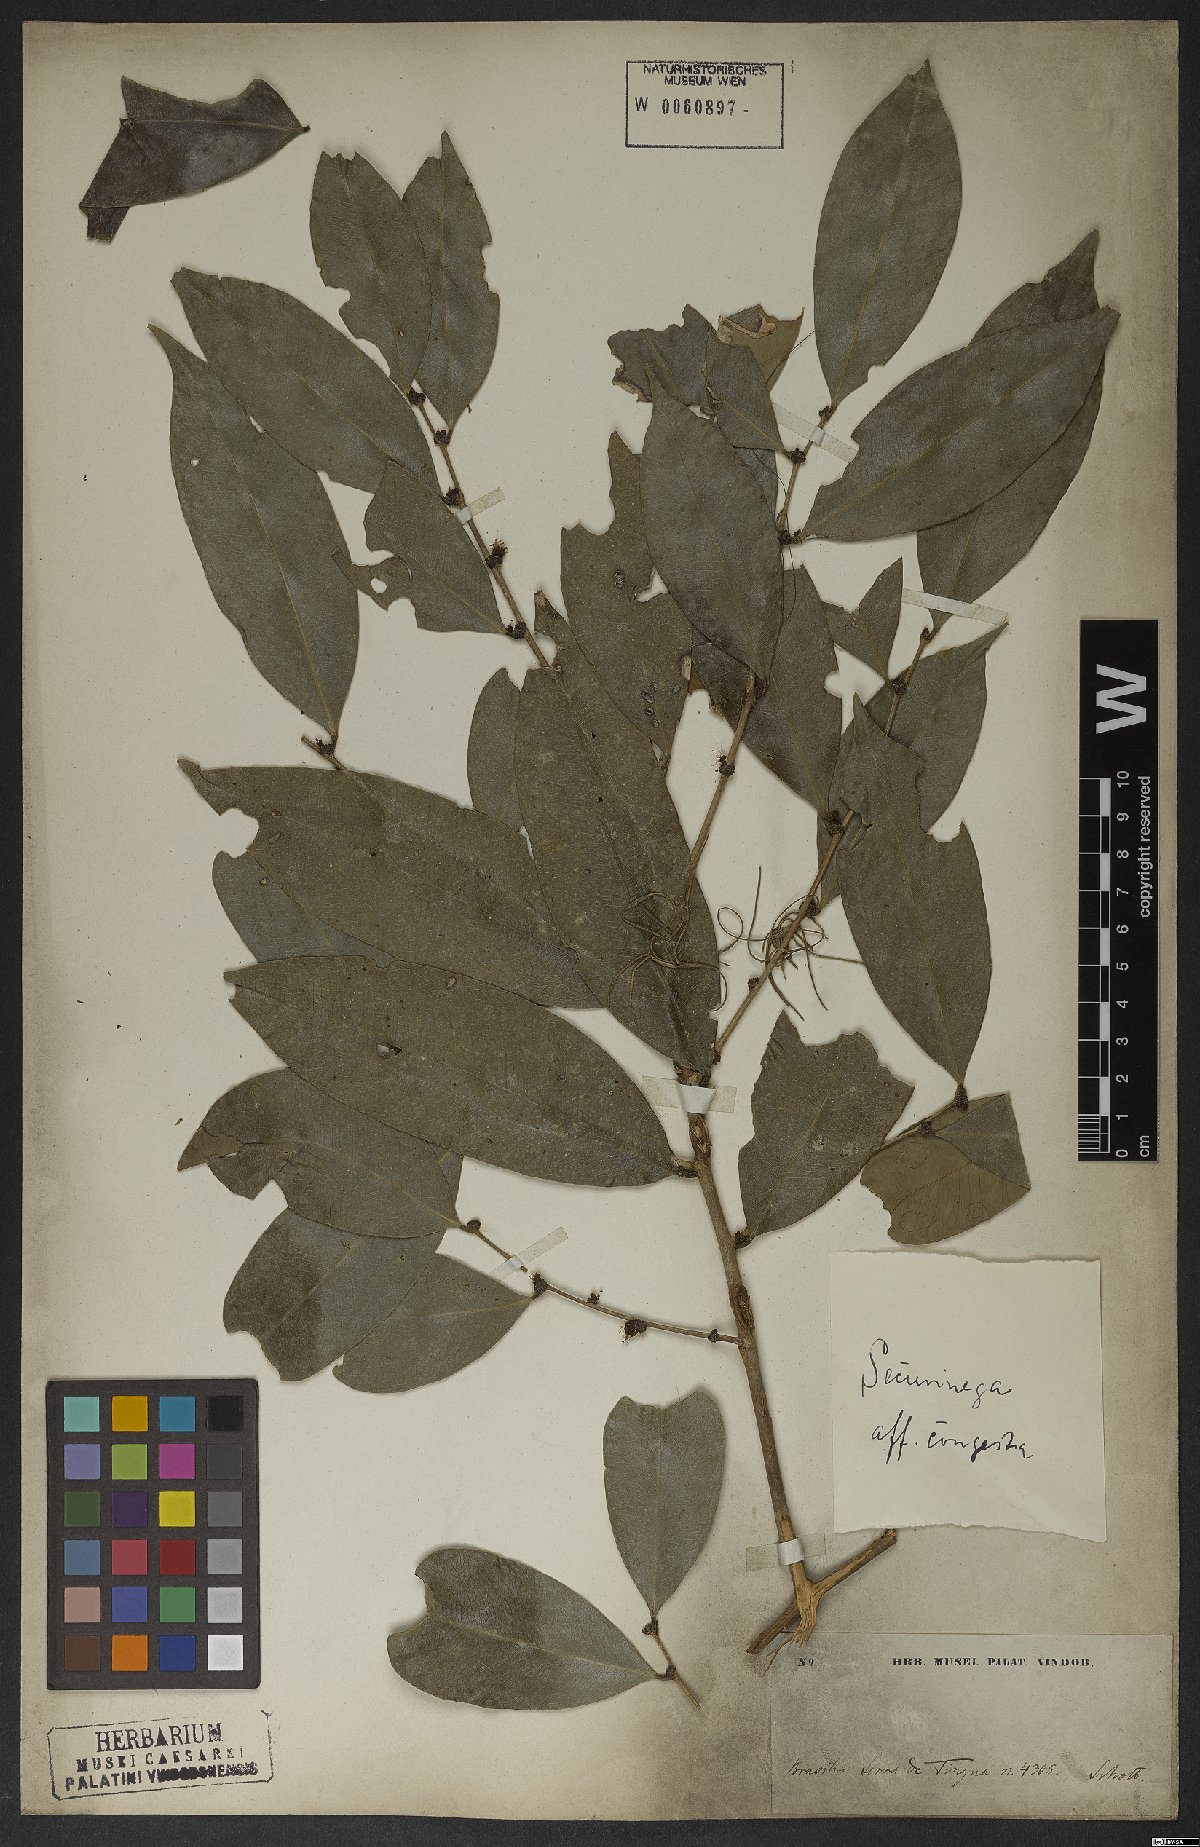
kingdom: Plantae
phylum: Tracheophyta
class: Magnoliopsida
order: Malpighiales
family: Phyllanthaceae
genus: Jablonskia
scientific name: Jablonskia congesta
